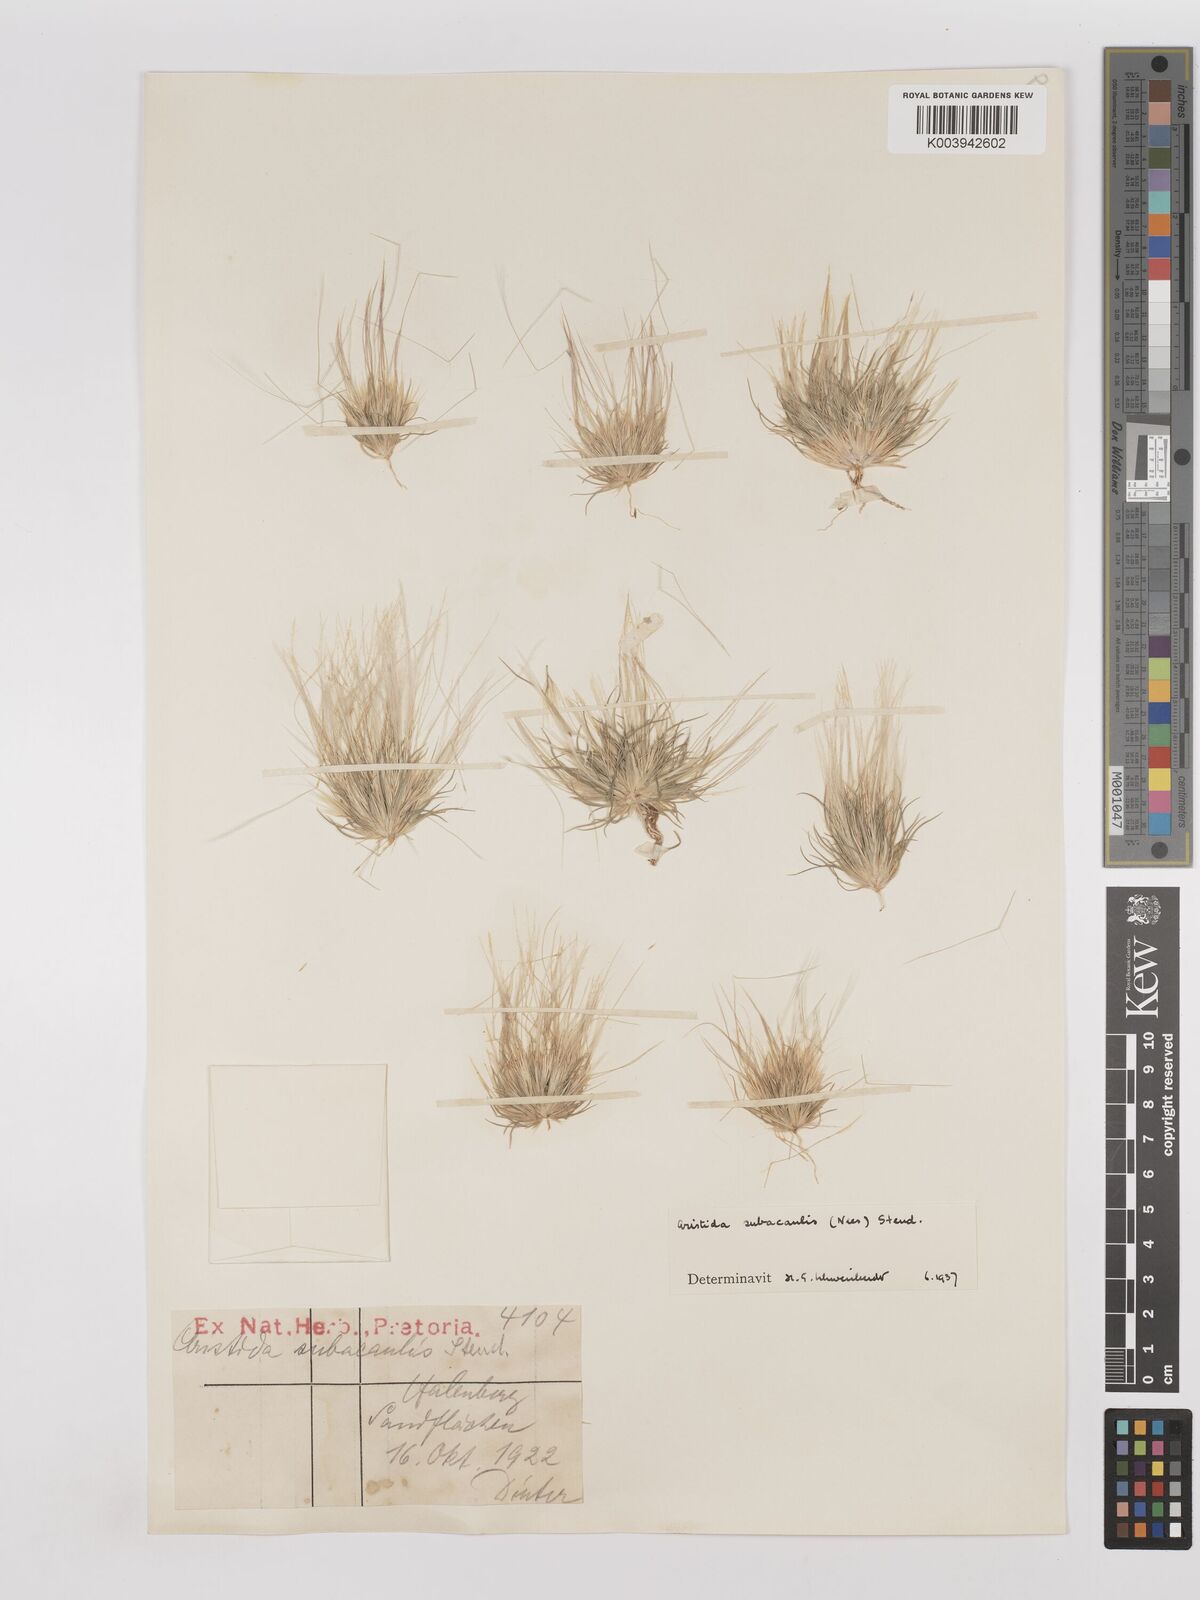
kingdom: Plantae
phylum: Tracheophyta
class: Liliopsida
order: Poales
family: Poaceae
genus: Stipagrostis
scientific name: Stipagrostis subacaulis
